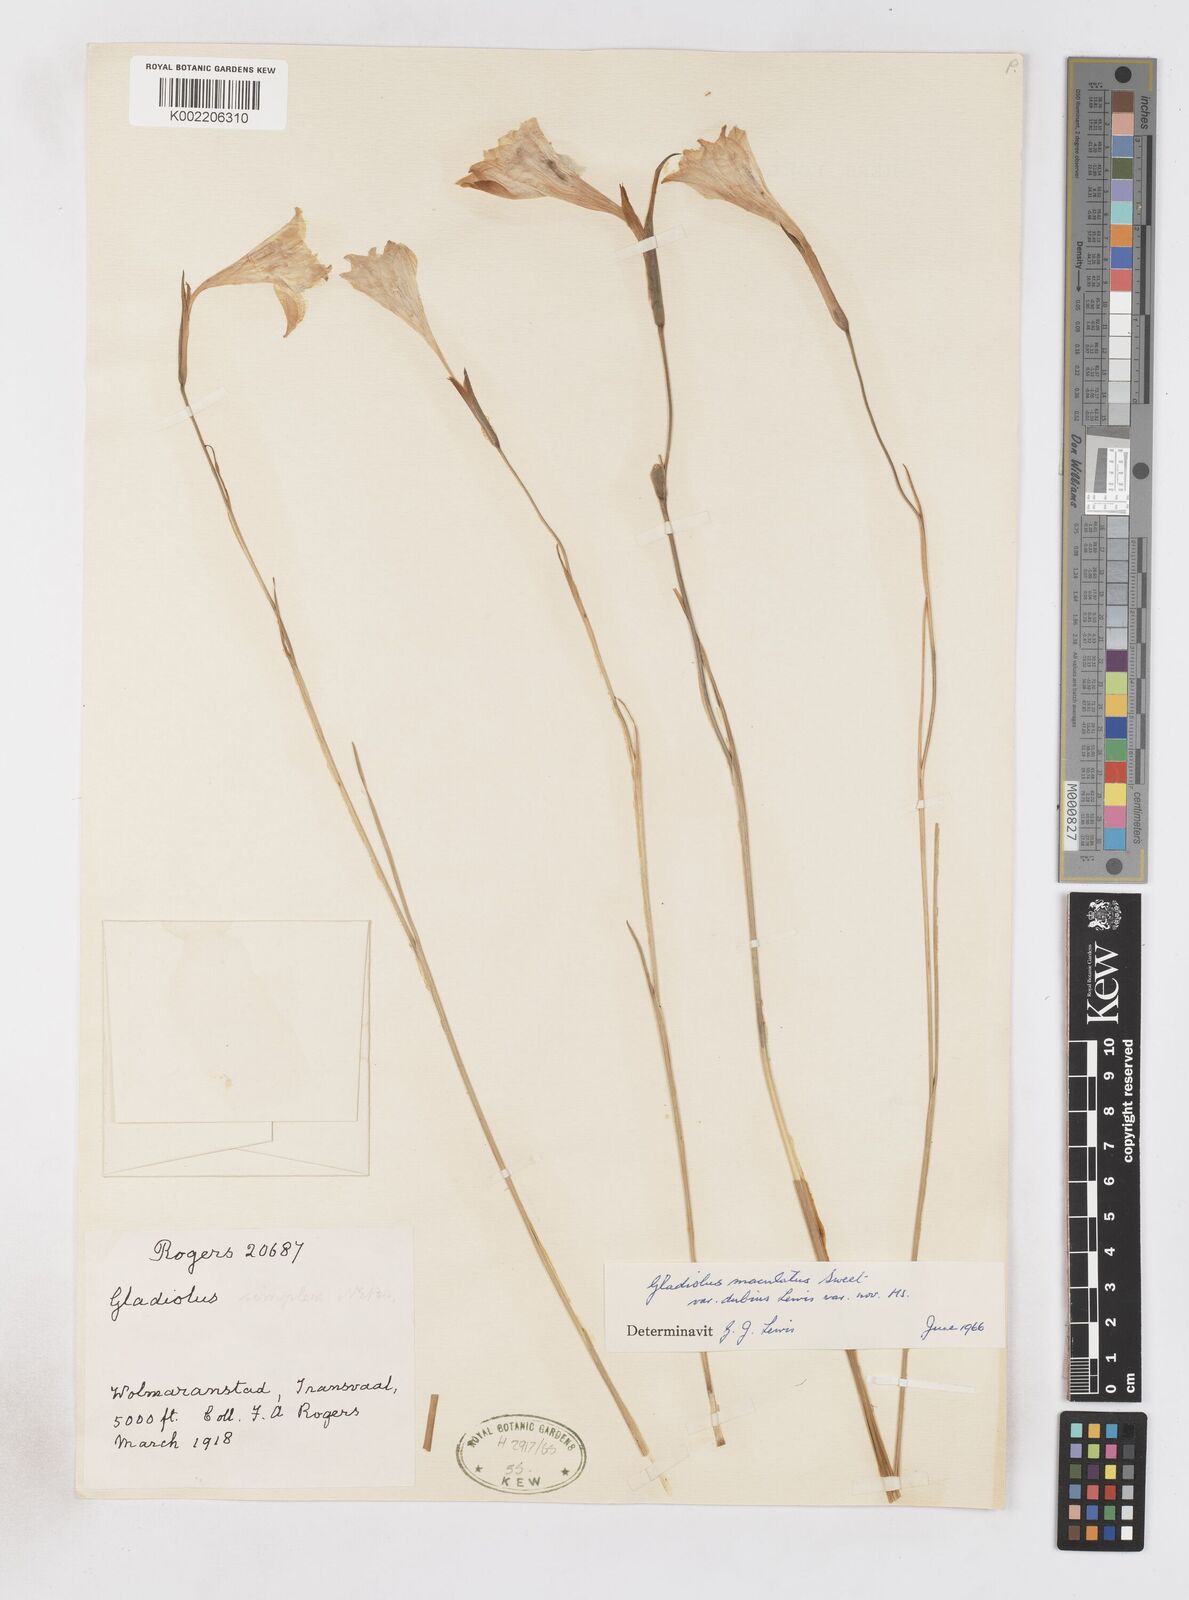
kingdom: Plantae
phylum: Tracheophyta
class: Liliopsida
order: Asparagales
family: Iridaceae
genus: Gladiolus
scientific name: Gladiolus maculatus
